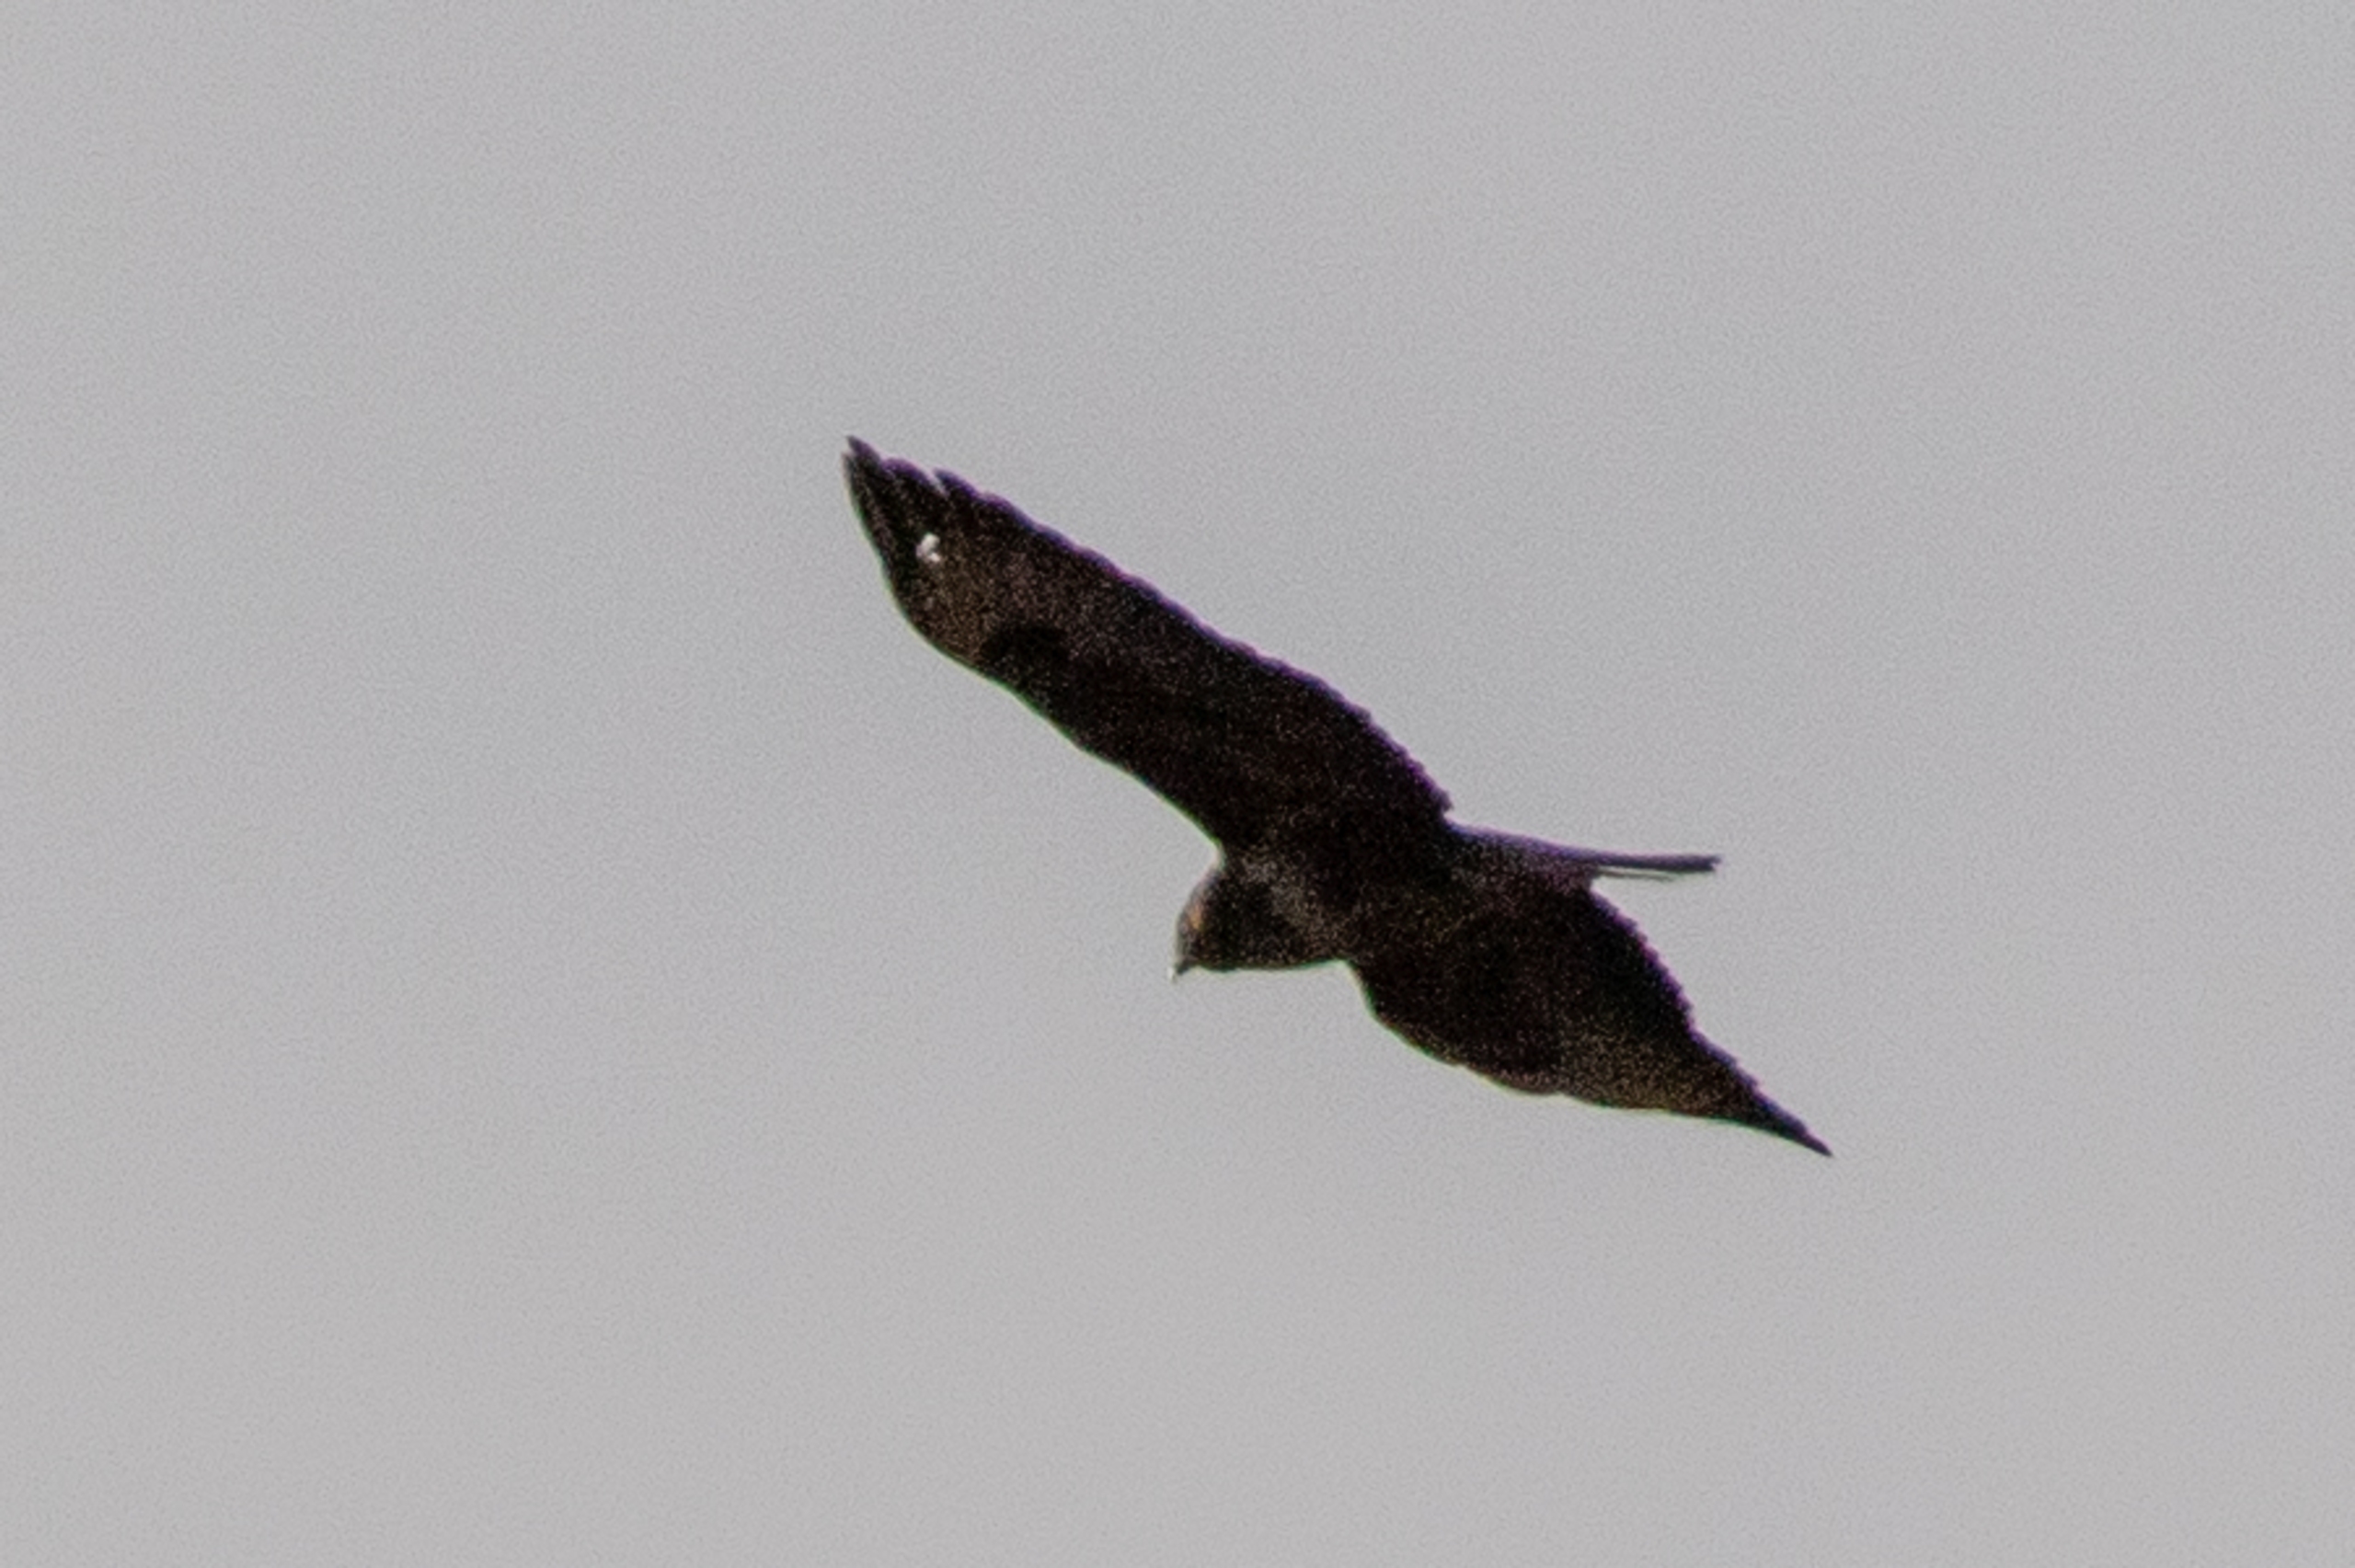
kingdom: Animalia
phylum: Chordata
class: Aves
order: Accipitriformes
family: Accipitridae
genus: Buteo
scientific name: Buteo buteo
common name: Musvåge
